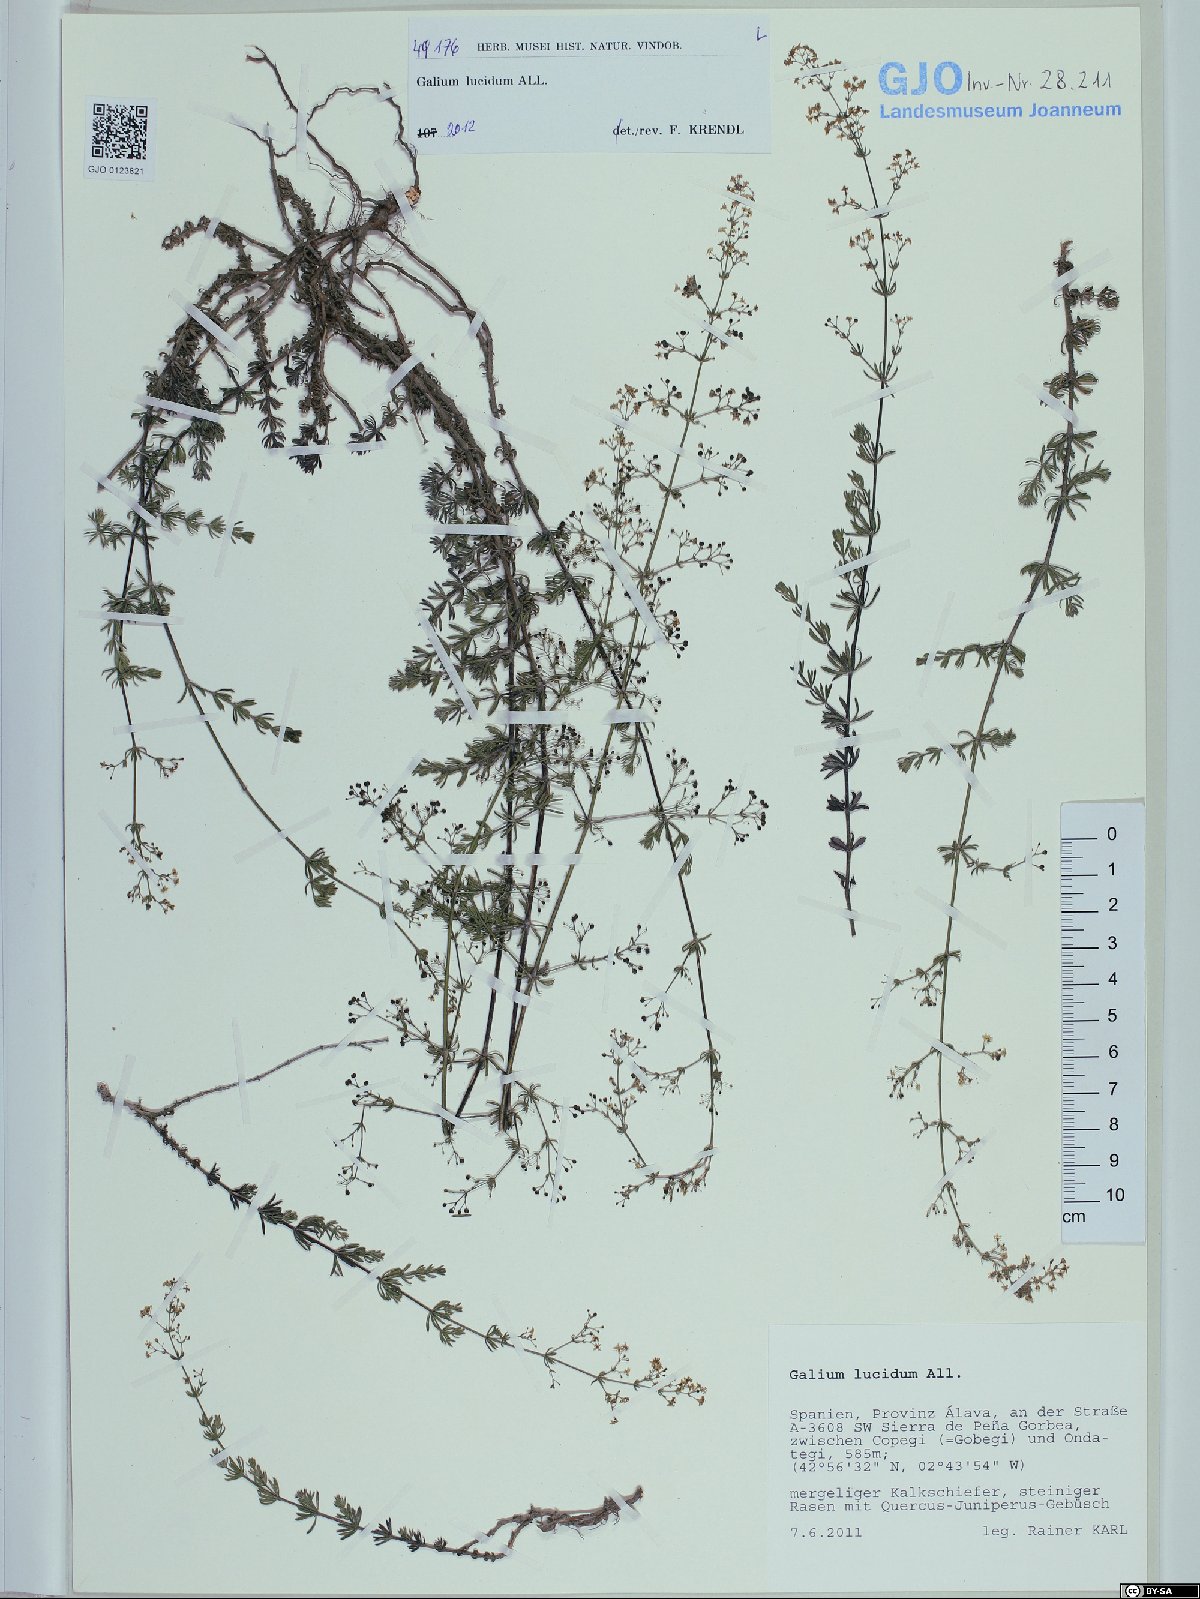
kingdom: Plantae
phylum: Tracheophyta
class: Magnoliopsida
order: Gentianales
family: Rubiaceae
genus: Galium
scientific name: Galium lucidum
